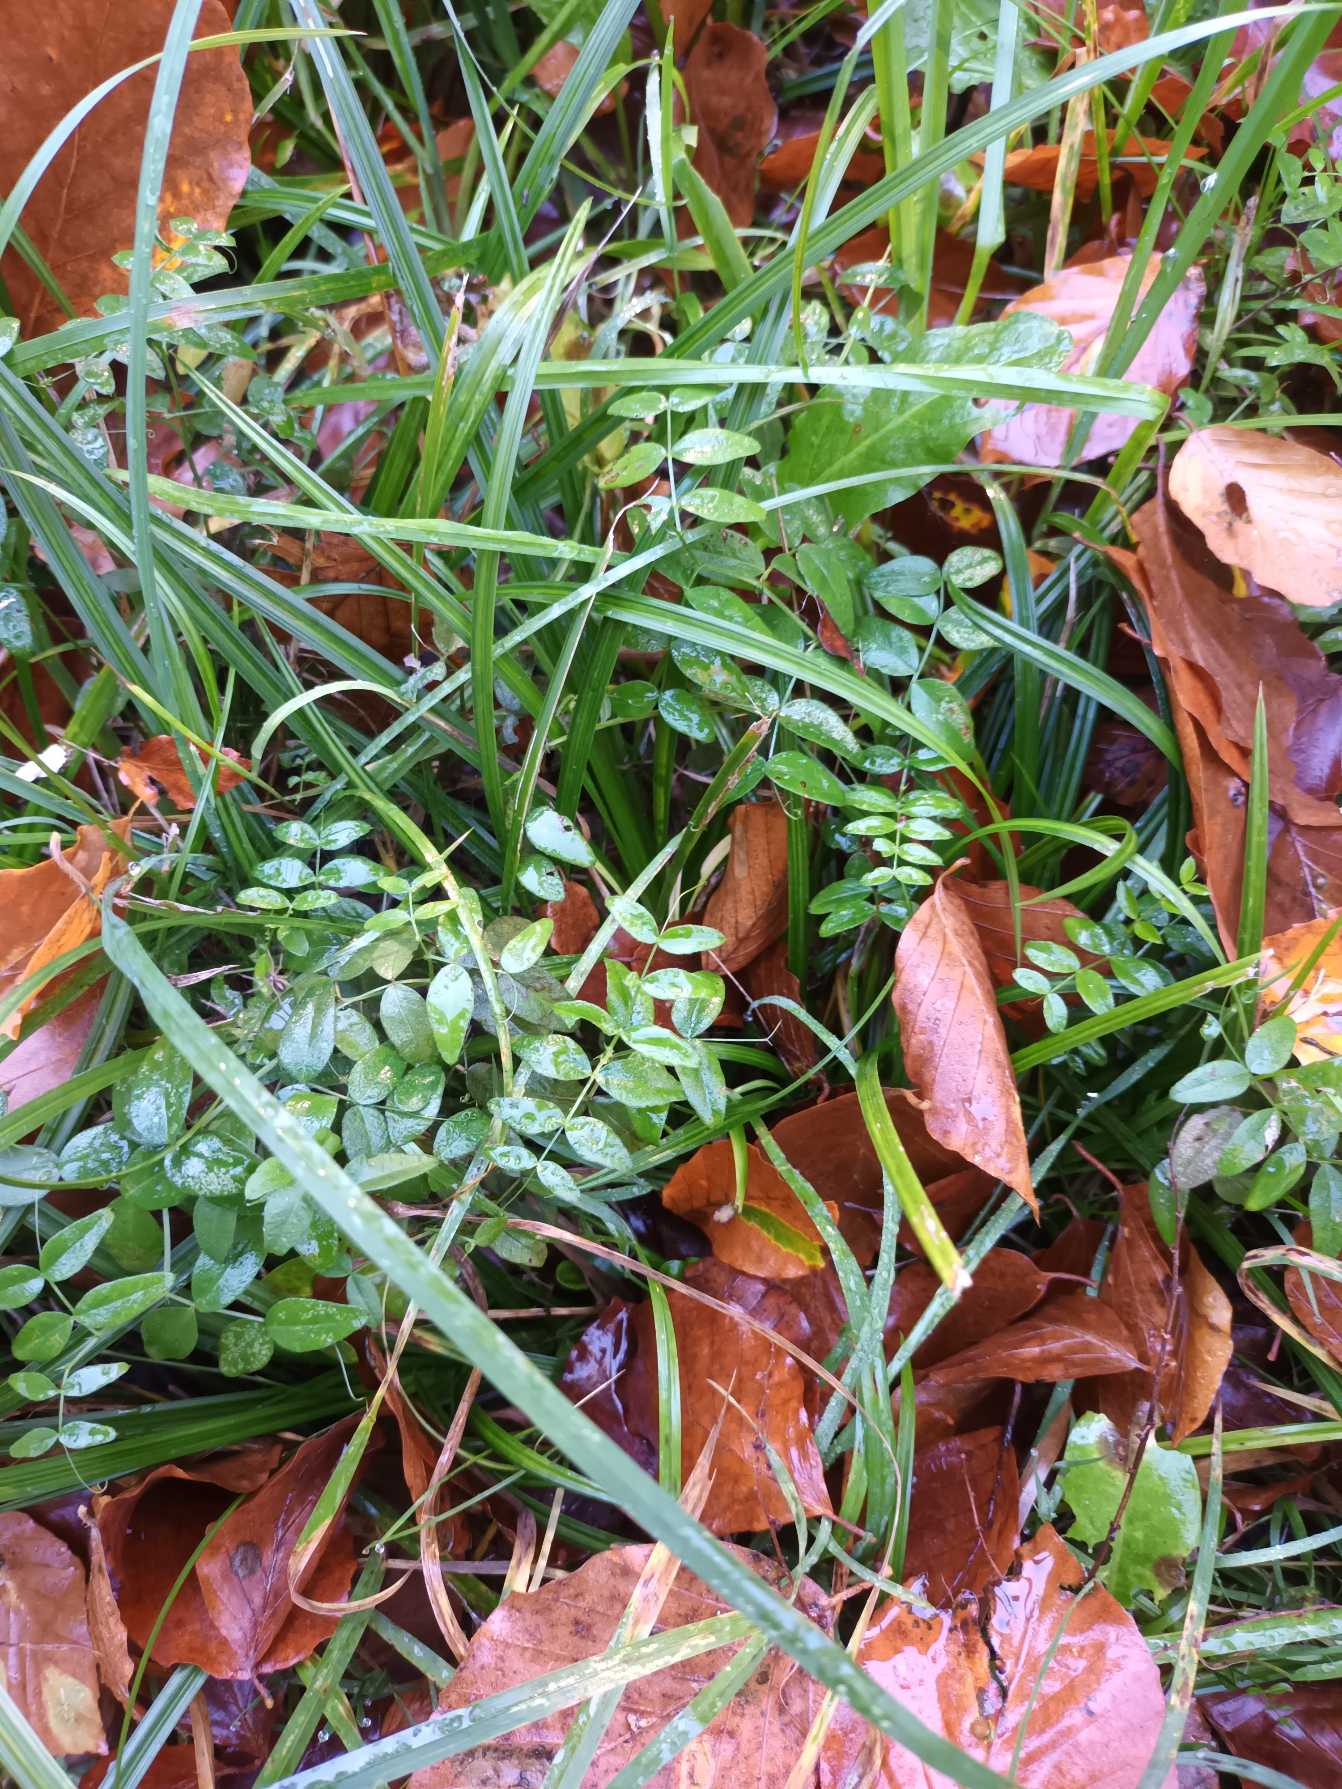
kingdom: Plantae
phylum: Tracheophyta
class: Magnoliopsida
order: Fabales
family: Fabaceae
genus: Vicia
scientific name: Vicia sepium
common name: Gærde-vikke
